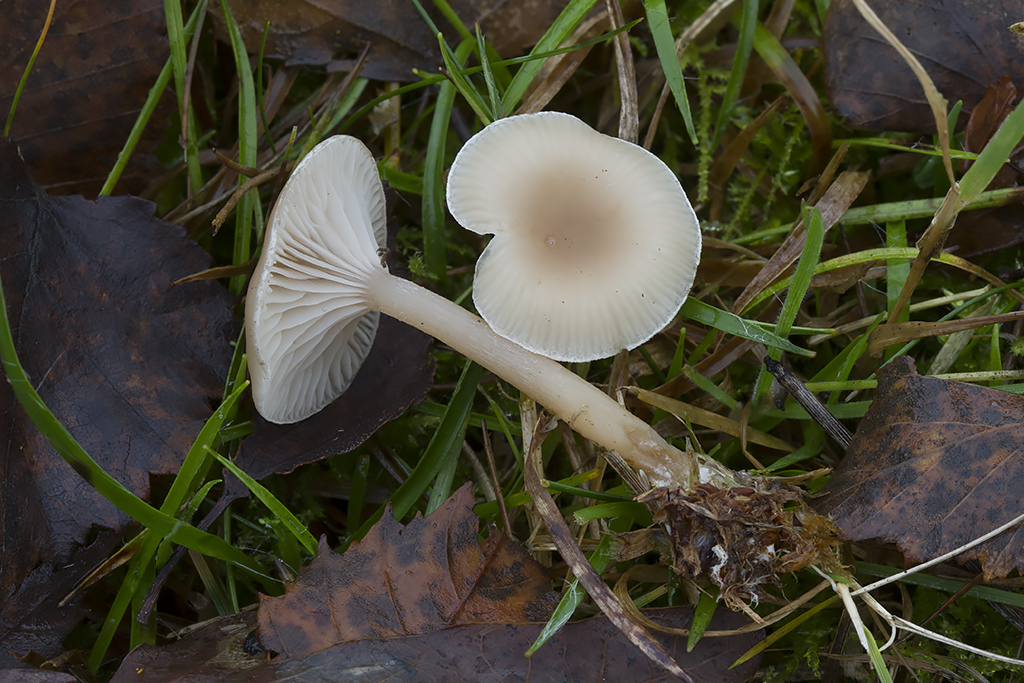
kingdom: Fungi
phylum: Basidiomycota
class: Agaricomycetes
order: Agaricales
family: Tricholomataceae
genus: Clitocybe
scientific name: Clitocybe fragrans
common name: vellugtende tragthat
